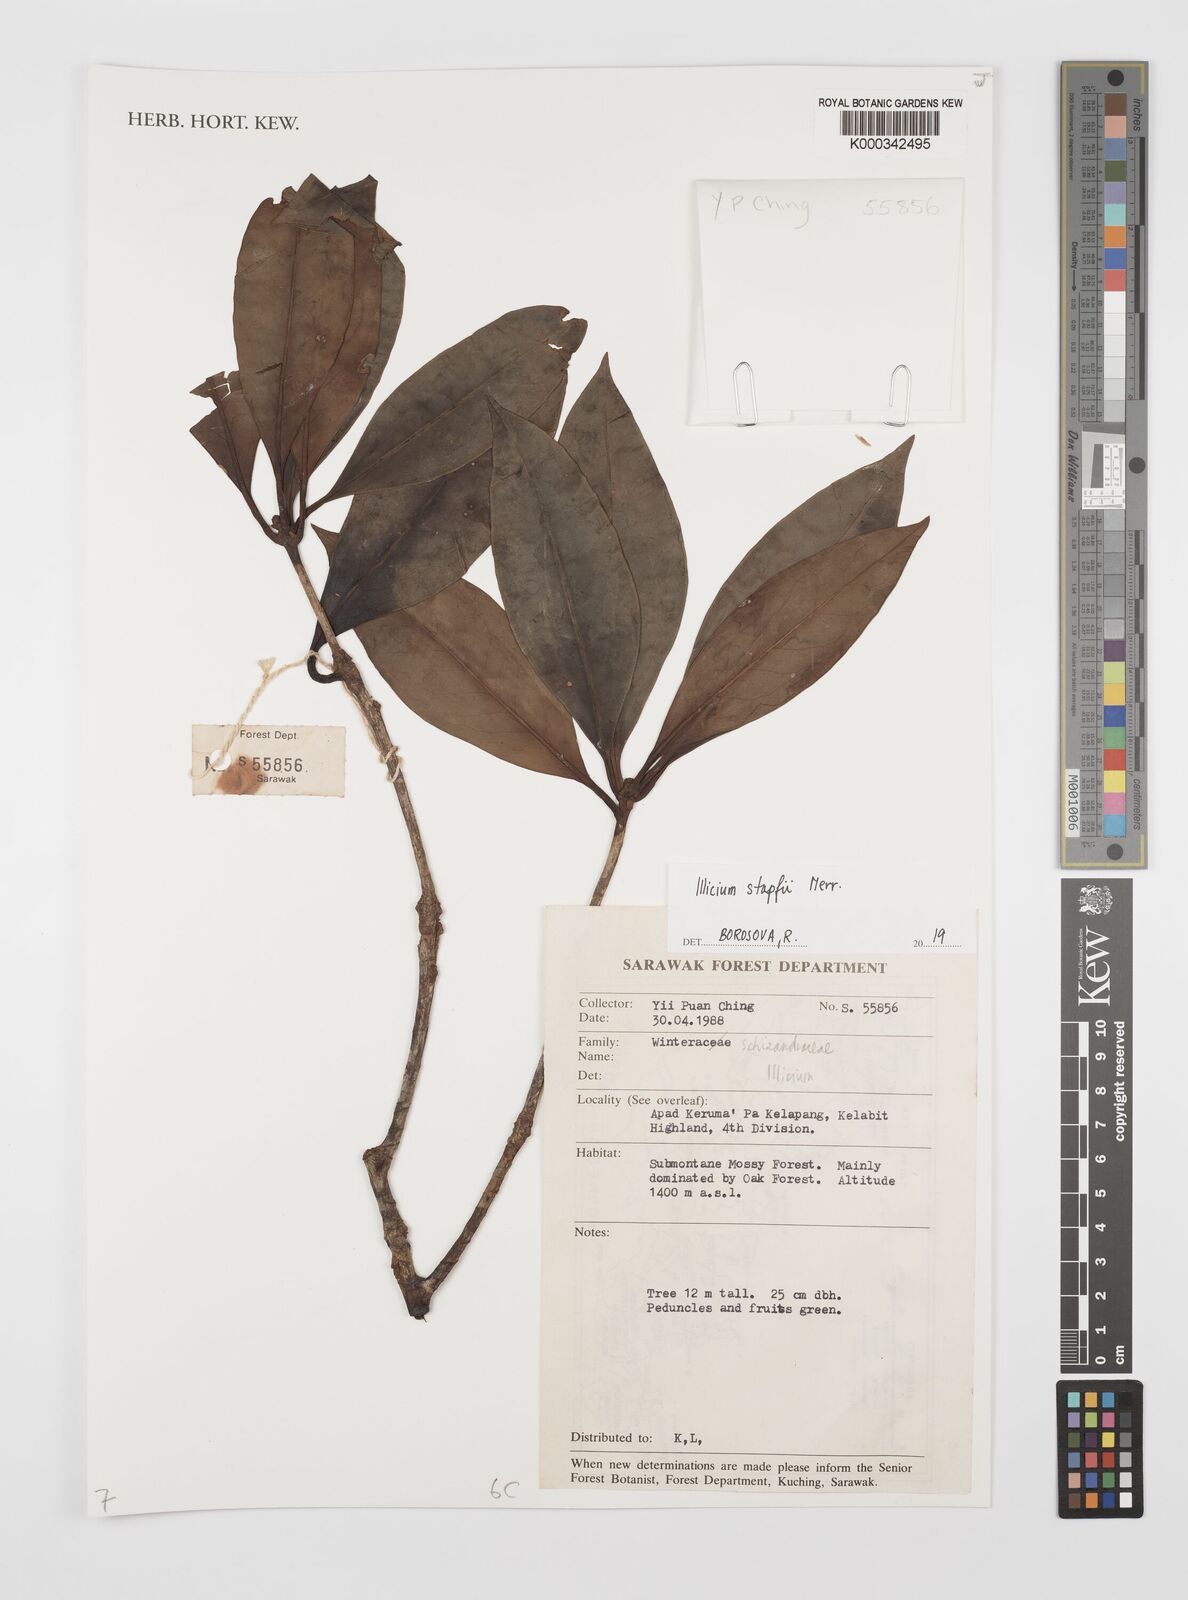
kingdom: Plantae
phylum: Tracheophyta
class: Magnoliopsida
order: Austrobaileyales
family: Schisandraceae
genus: Illicium
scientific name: Illicium stapfii
